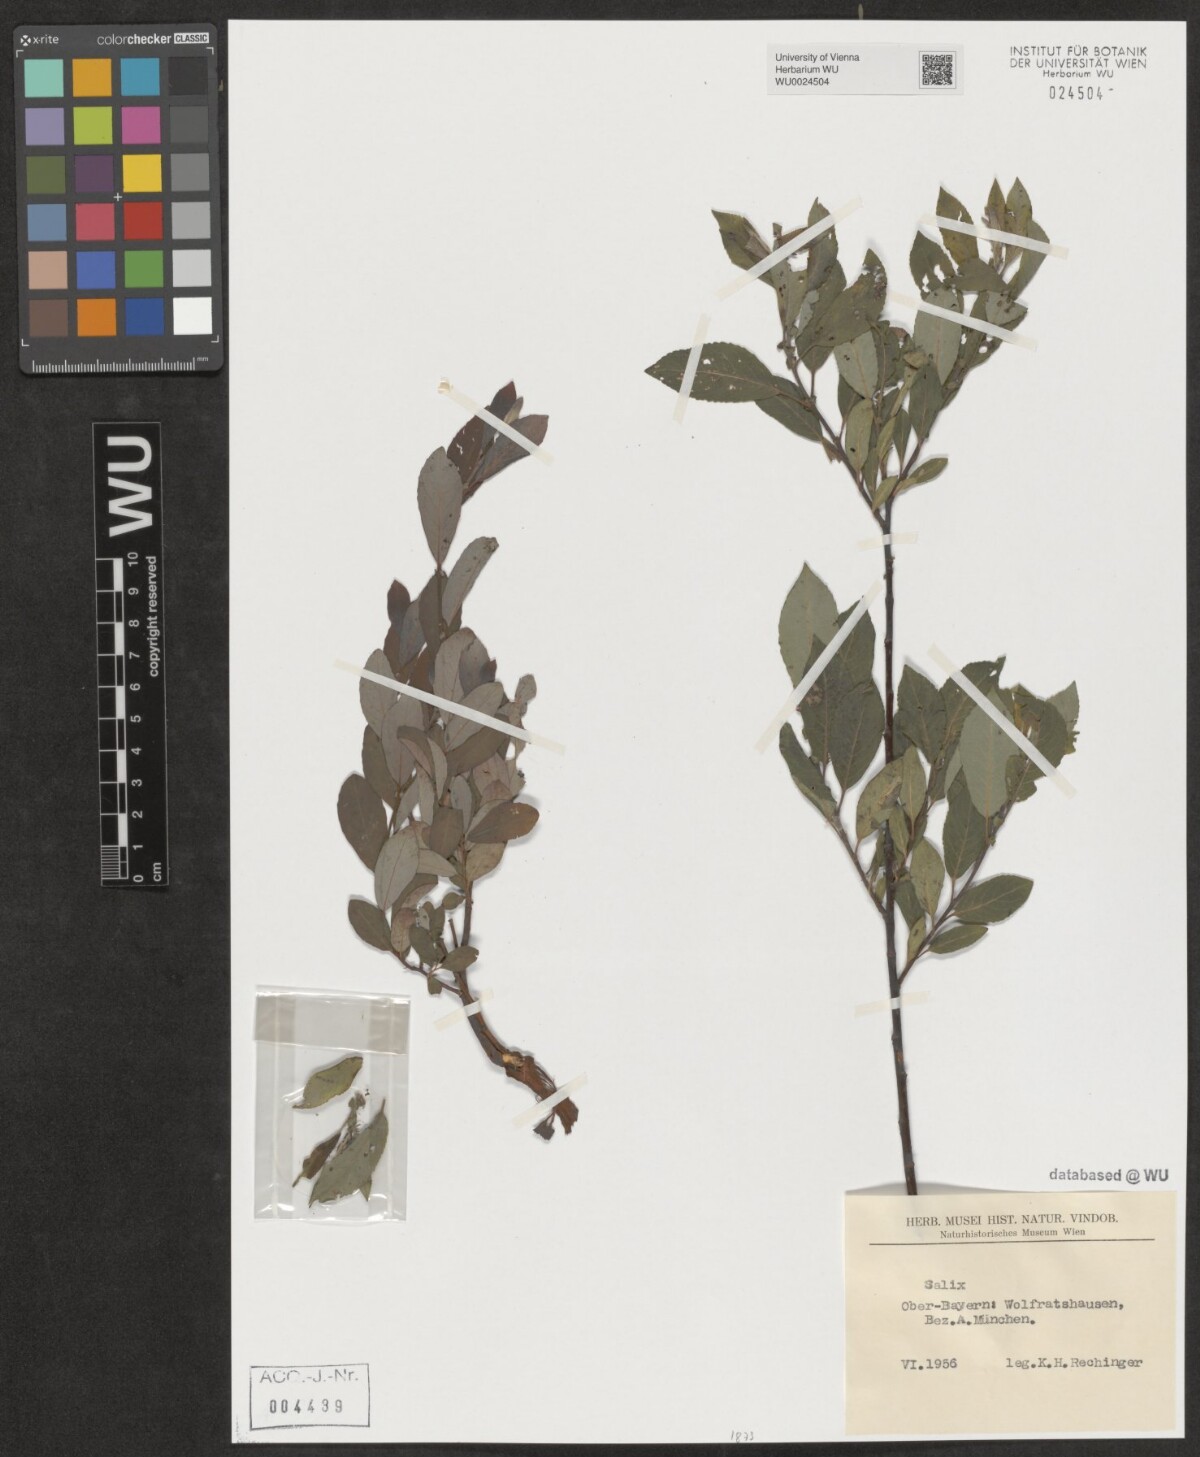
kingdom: Plantae
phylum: Tracheophyta
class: Magnoliopsida
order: Malpighiales
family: Salicaceae
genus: Salix
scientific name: Salix
